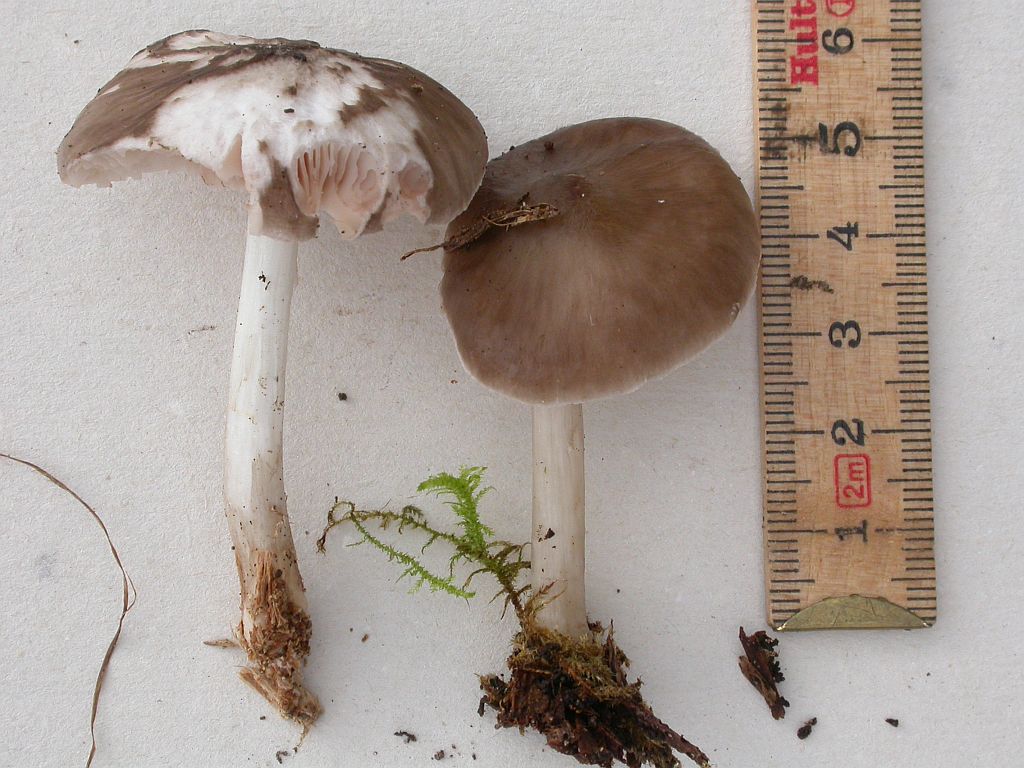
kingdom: Fungi
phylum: Basidiomycota
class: Agaricomycetes
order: Agaricales
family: Pluteaceae
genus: Pluteus
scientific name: Pluteus primus
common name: tidlig skærmhat
